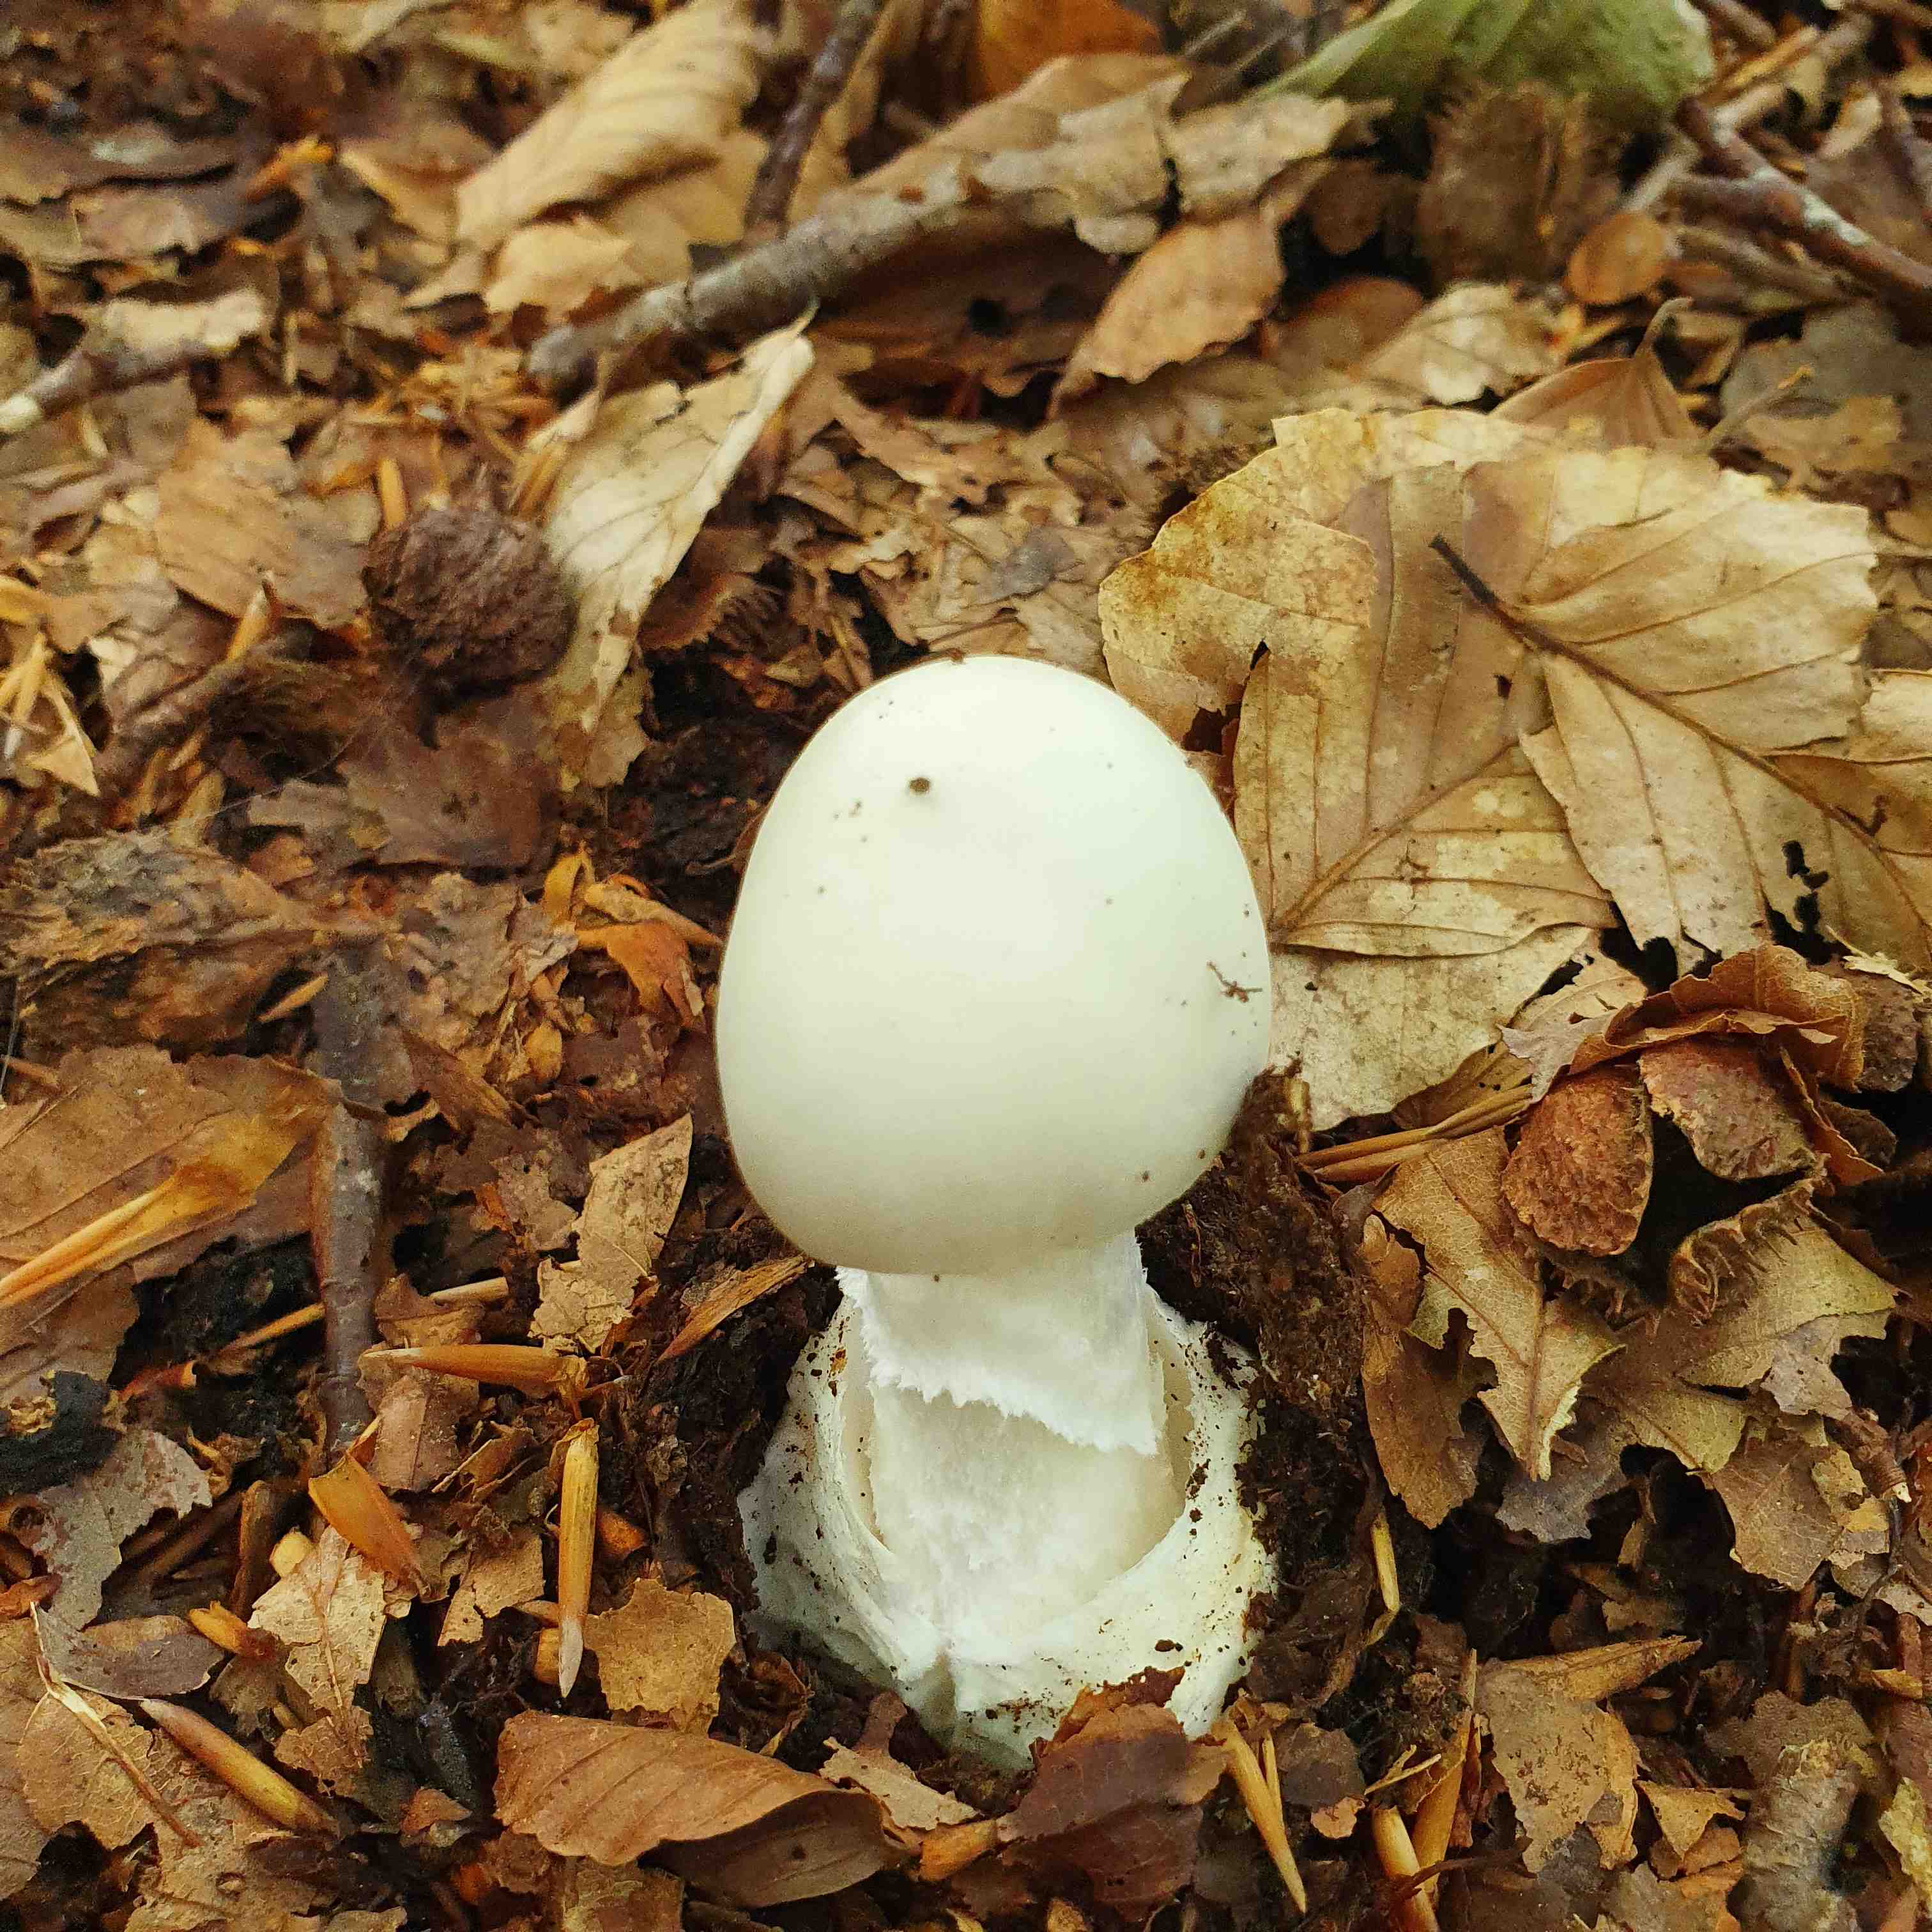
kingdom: Fungi
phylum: Basidiomycota
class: Agaricomycetes
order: Agaricales
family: Amanitaceae
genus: Amanita
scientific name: Amanita virosa
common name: snehvid fluesvamp
